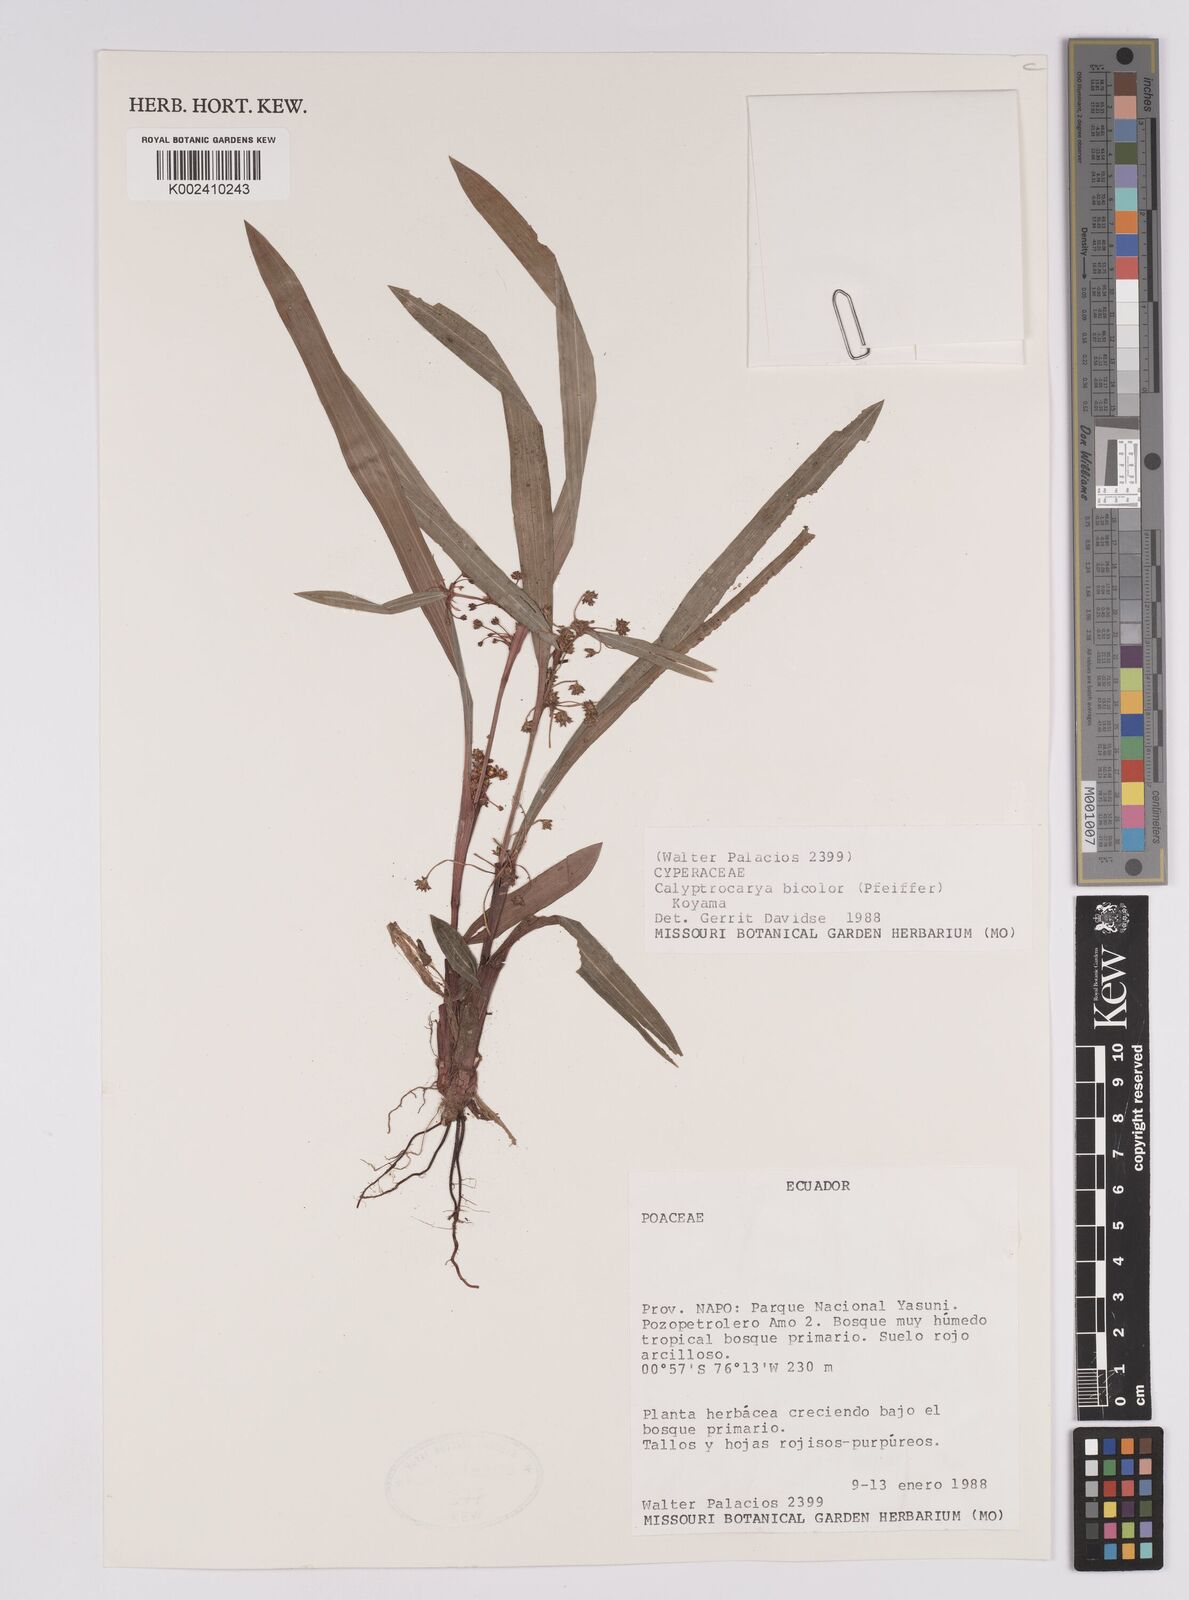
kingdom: Plantae
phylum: Tracheophyta
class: Liliopsida
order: Poales
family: Cyperaceae
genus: Calyptrocarya
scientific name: Calyptrocarya bicolor
